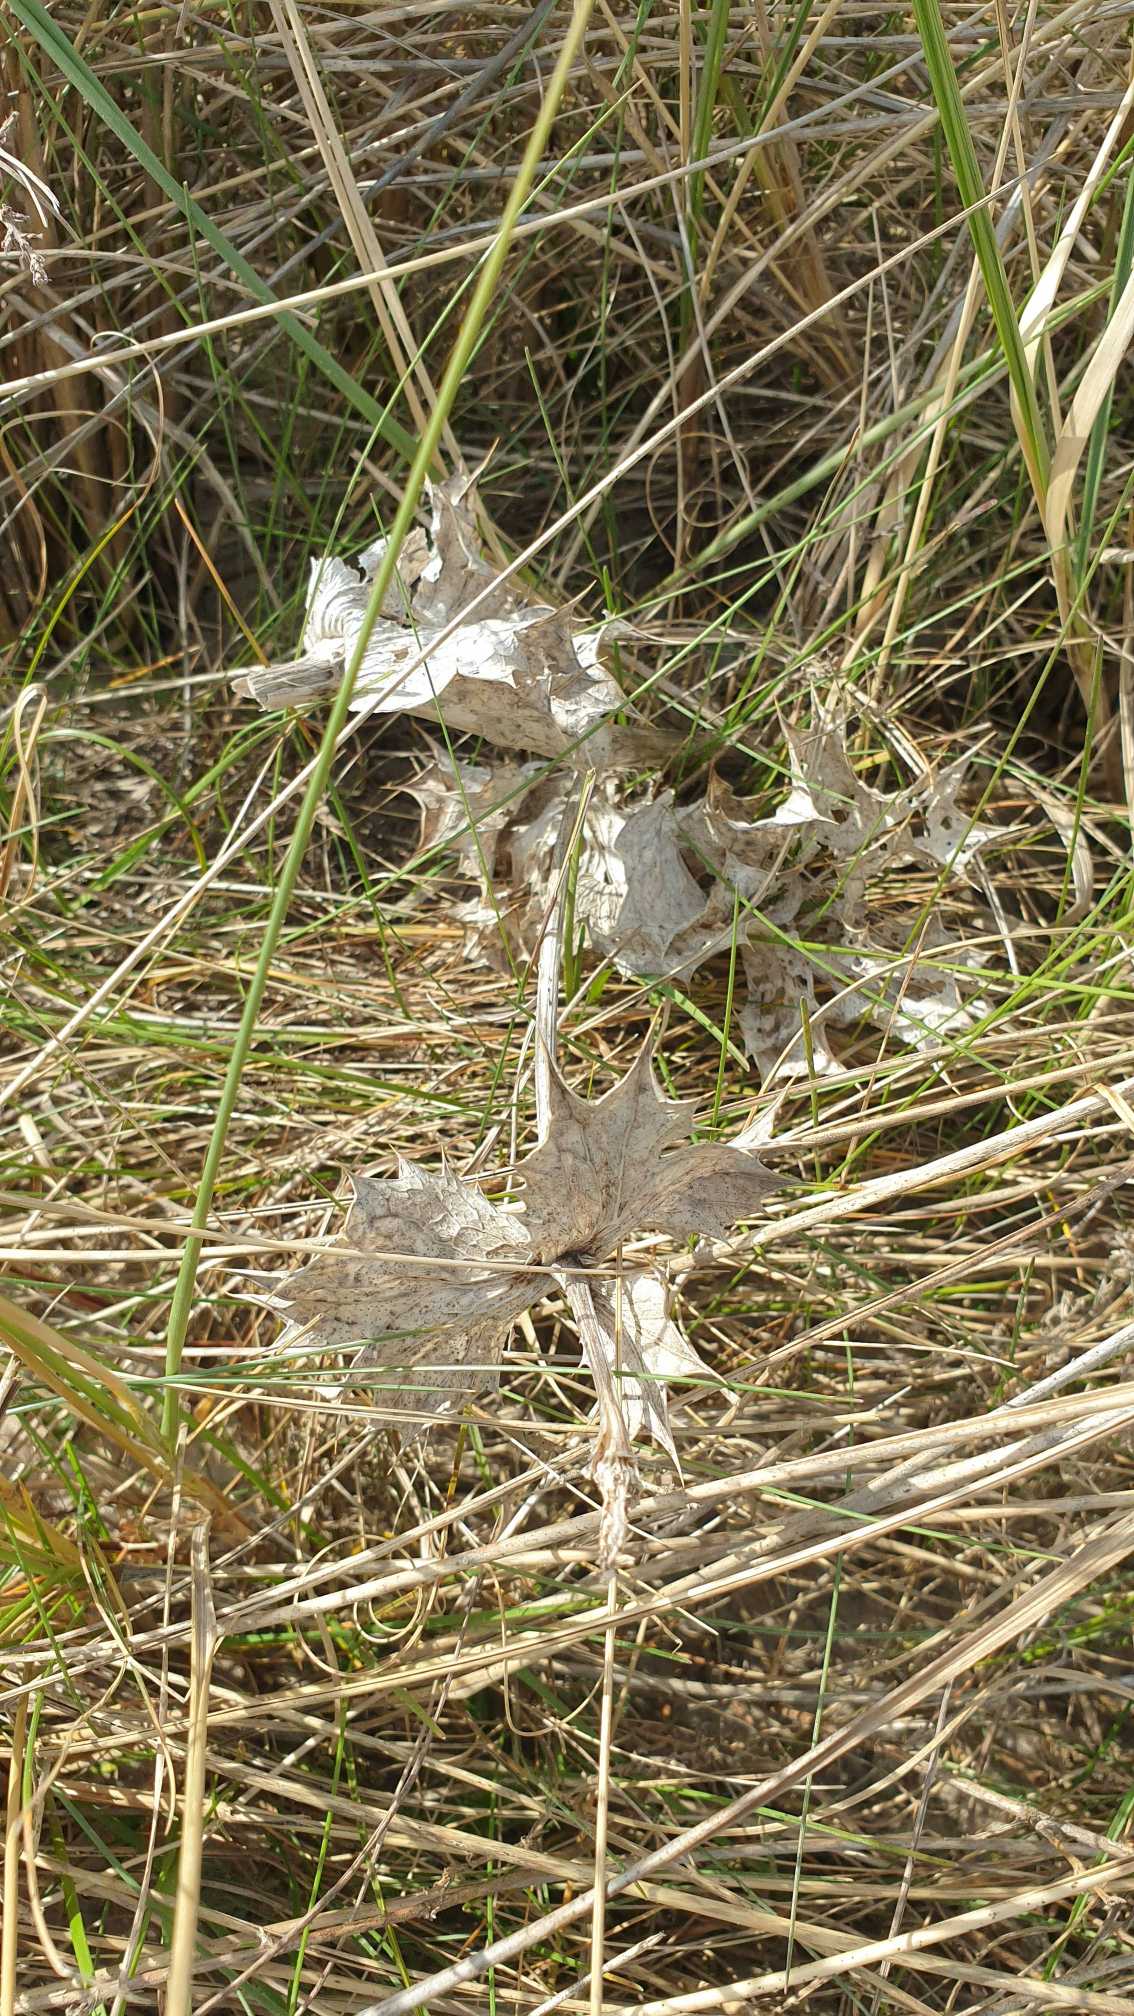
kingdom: Plantae
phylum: Tracheophyta
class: Magnoliopsida
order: Apiales
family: Apiaceae
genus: Eryngium
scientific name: Eryngium maritimum
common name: Strand-mandstro
